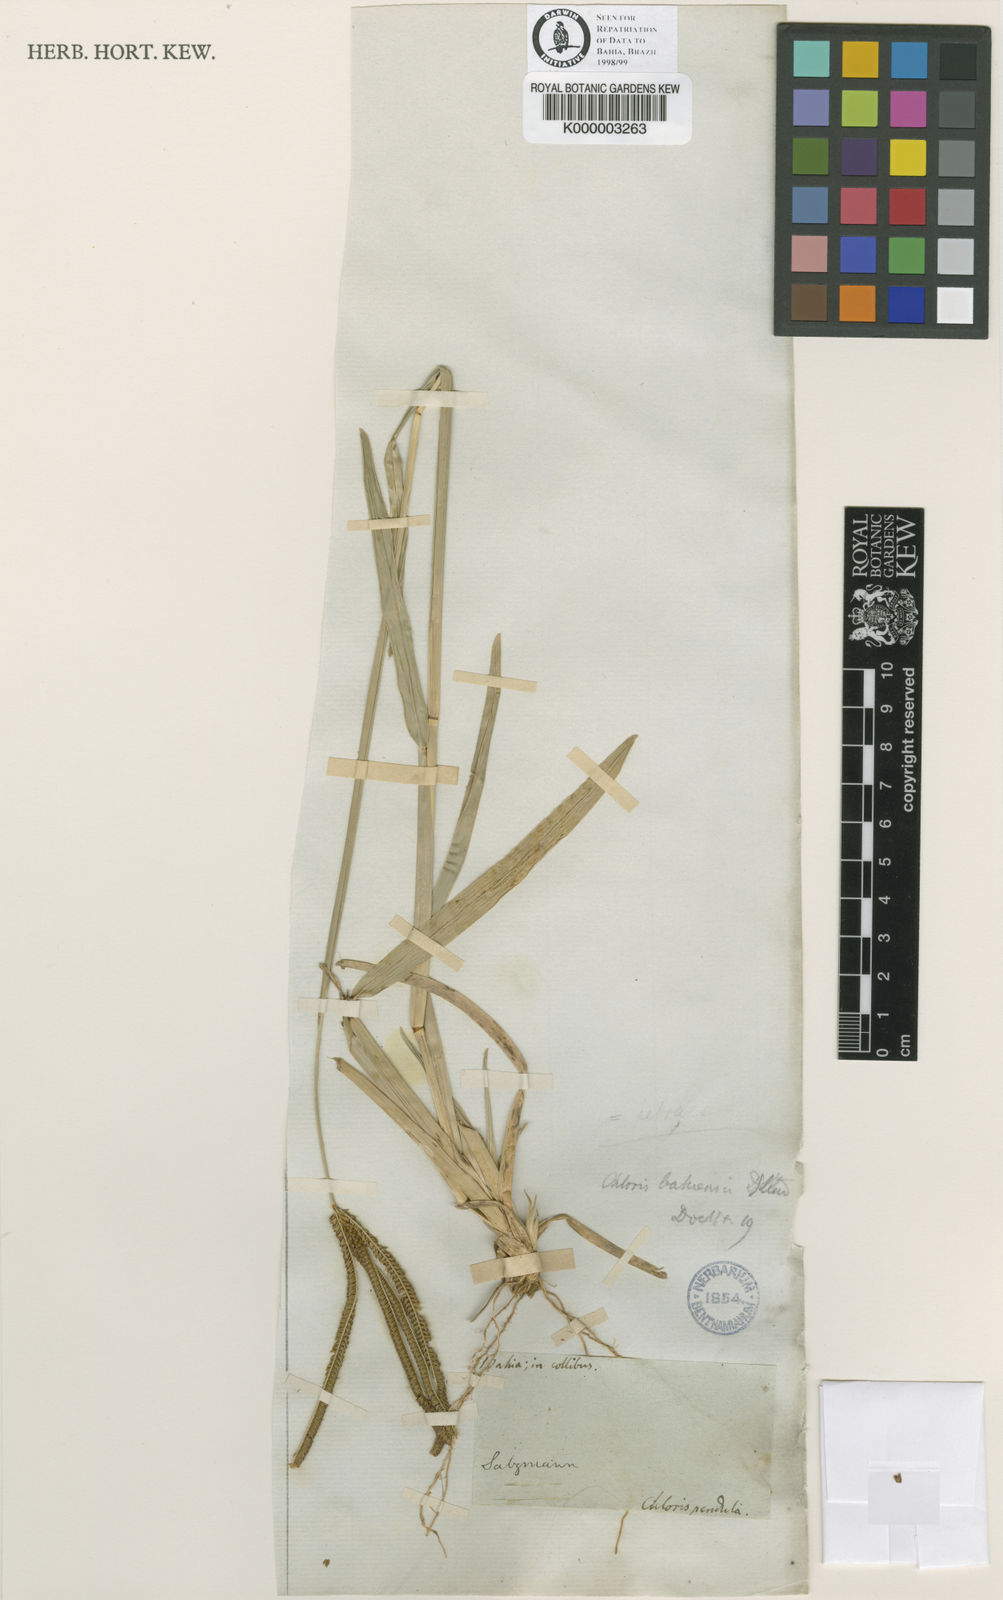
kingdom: Plantae
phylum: Tracheophyta
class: Liliopsida
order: Poales
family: Poaceae
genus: Eustachys
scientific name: Eustachys caribaea
